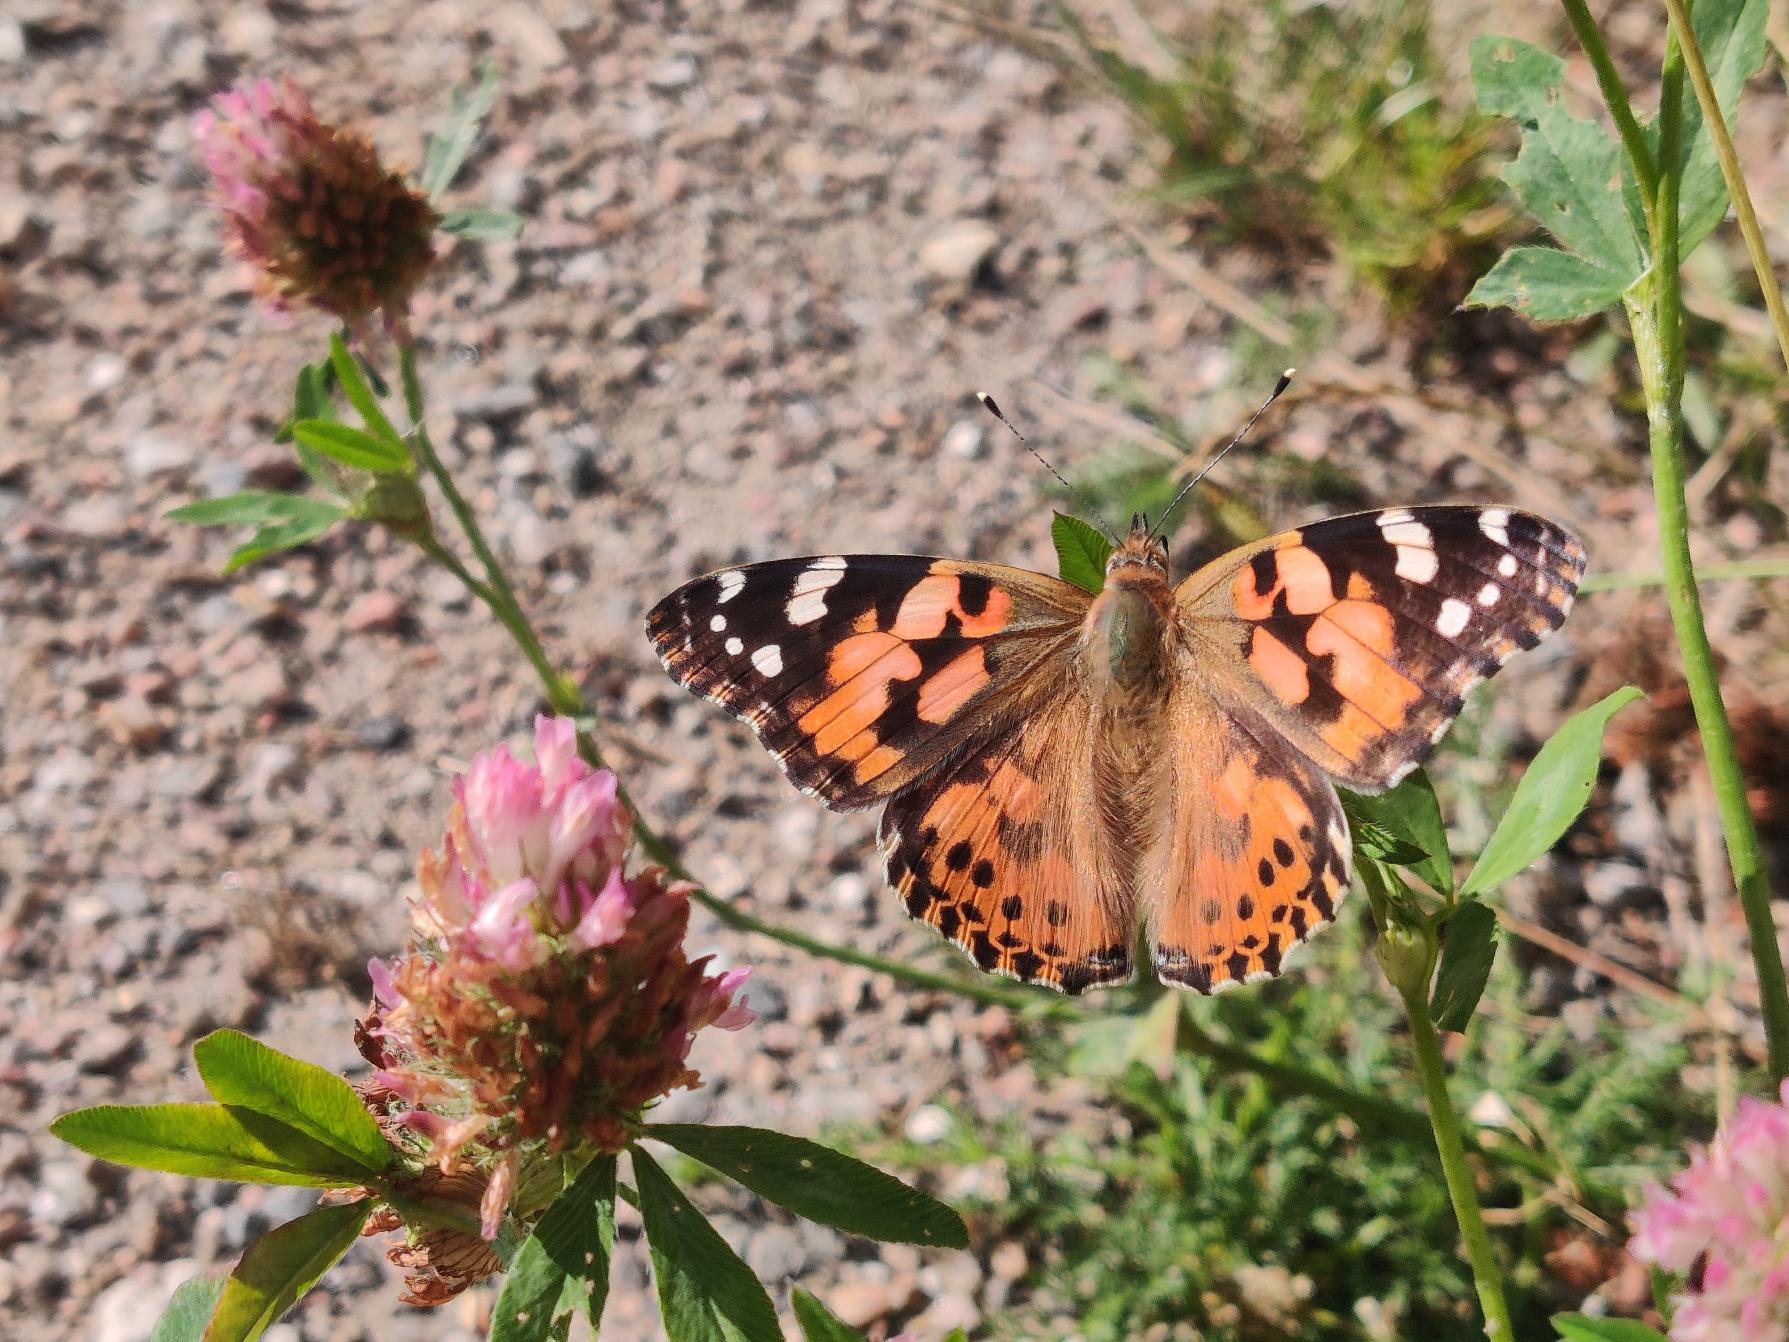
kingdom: Animalia
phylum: Arthropoda
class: Insecta
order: Lepidoptera
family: Nymphalidae
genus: Vanessa
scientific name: Vanessa cardui
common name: Tidselsommerfugl
